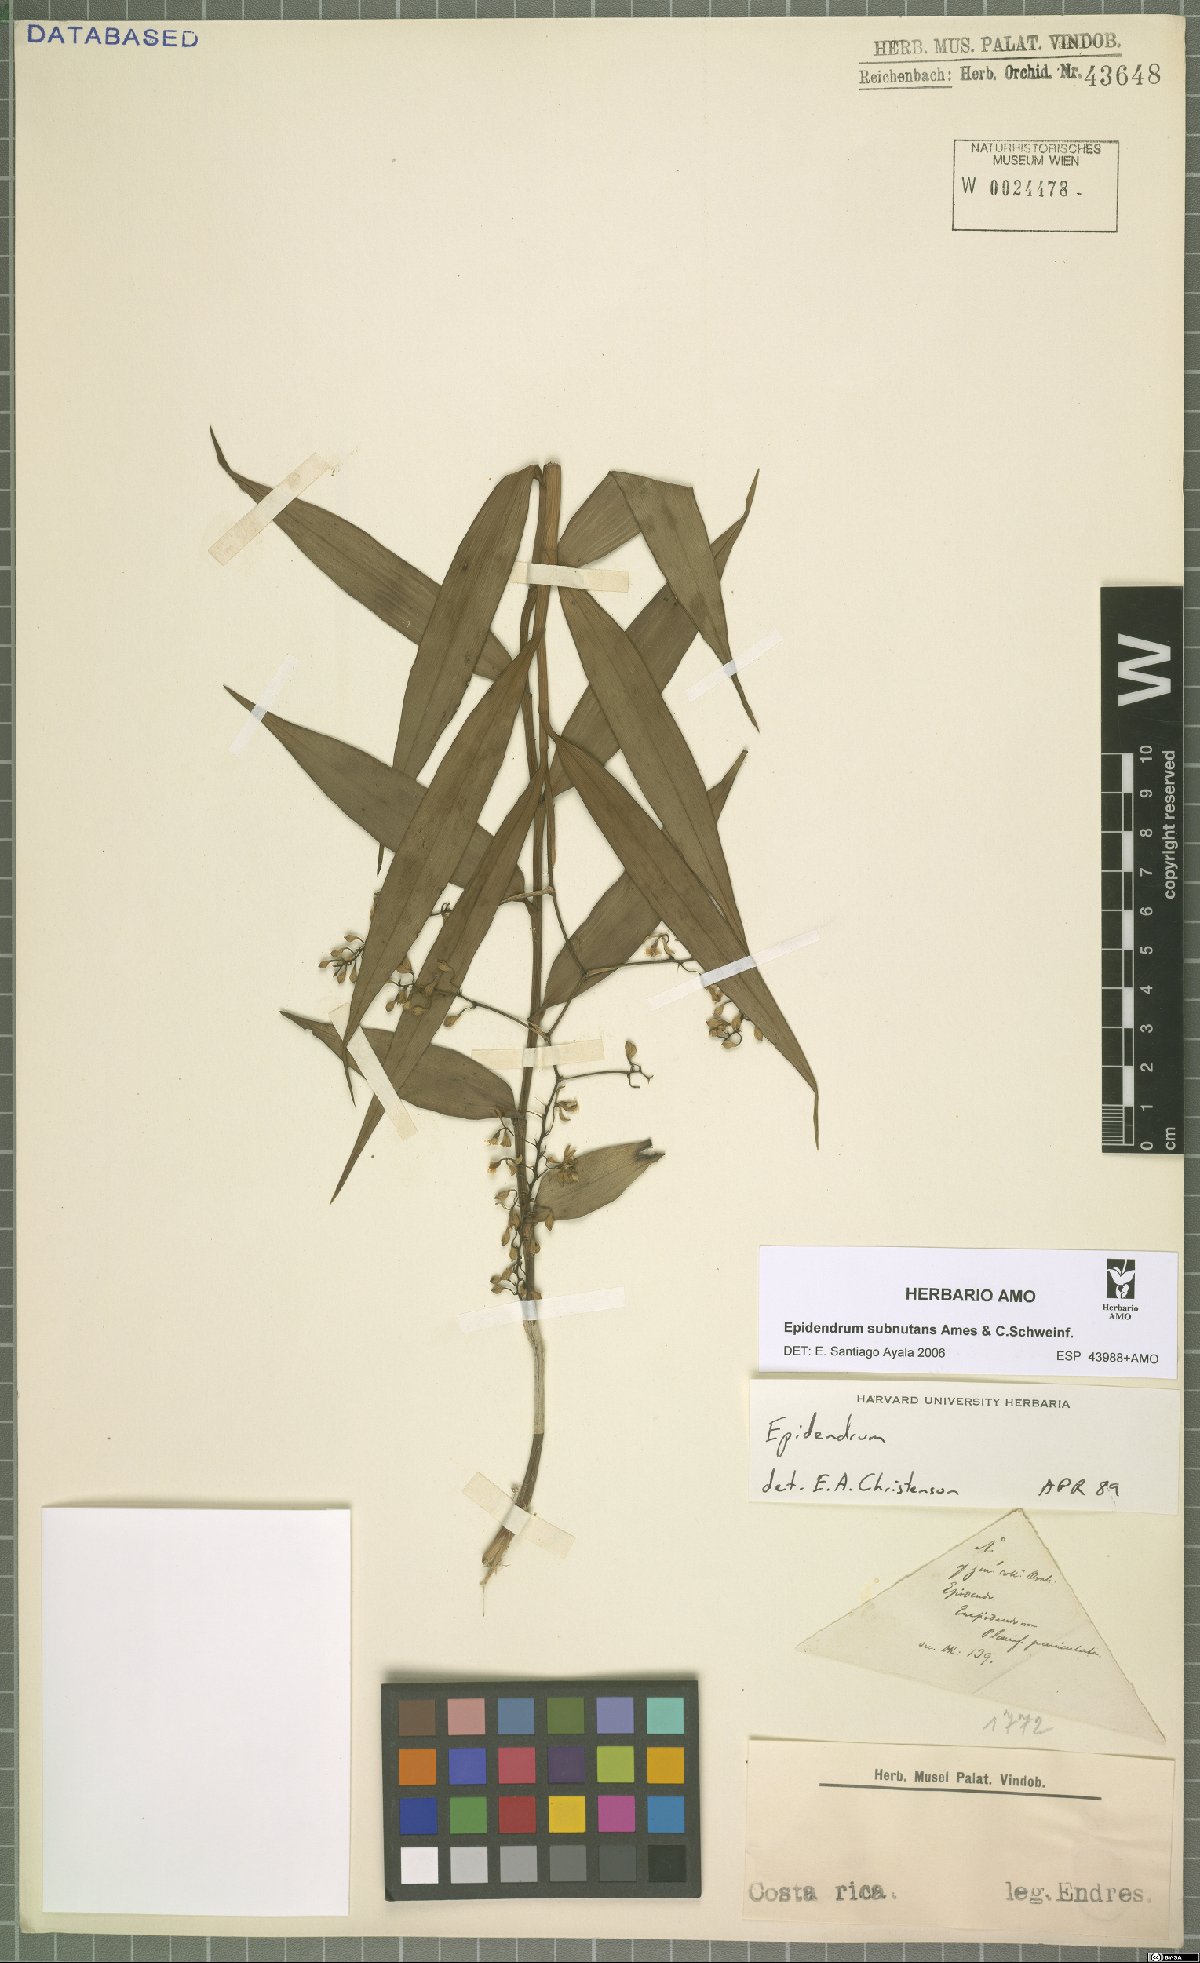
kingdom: Plantae
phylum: Tracheophyta
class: Liliopsida
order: Asparagales
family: Orchidaceae
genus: Epidendrum
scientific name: Epidendrum subnutans
